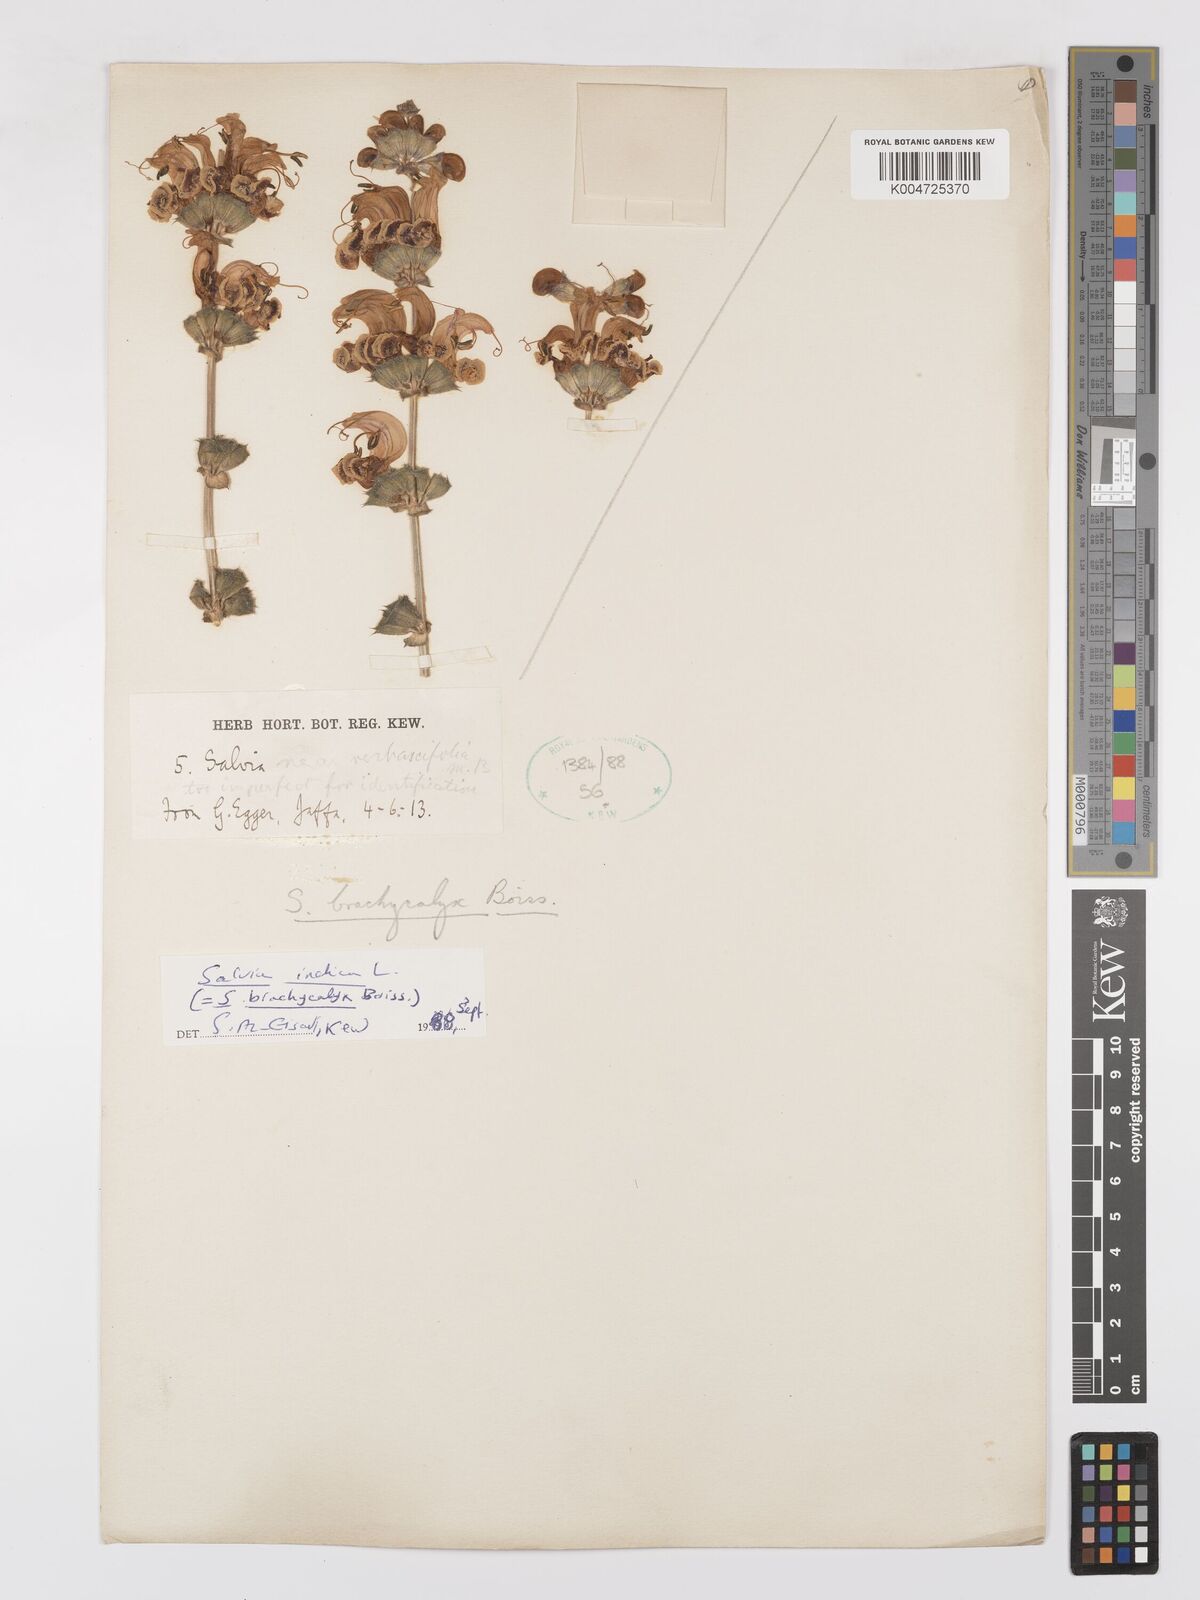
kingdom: Plantae
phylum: Tracheophyta
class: Magnoliopsida
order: Lamiales
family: Lamiaceae
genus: Salvia
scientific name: Salvia indica
